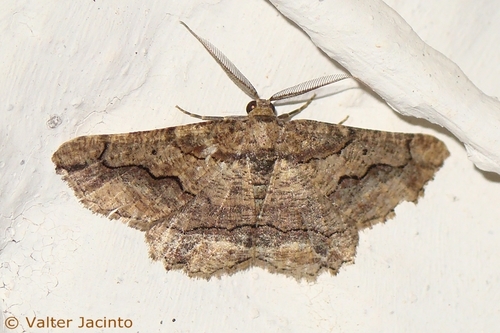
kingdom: Animalia
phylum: Arthropoda
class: Insecta
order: Lepidoptera
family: Geometridae
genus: Menophra
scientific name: Menophra japygiaria
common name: Brassy waved umber
